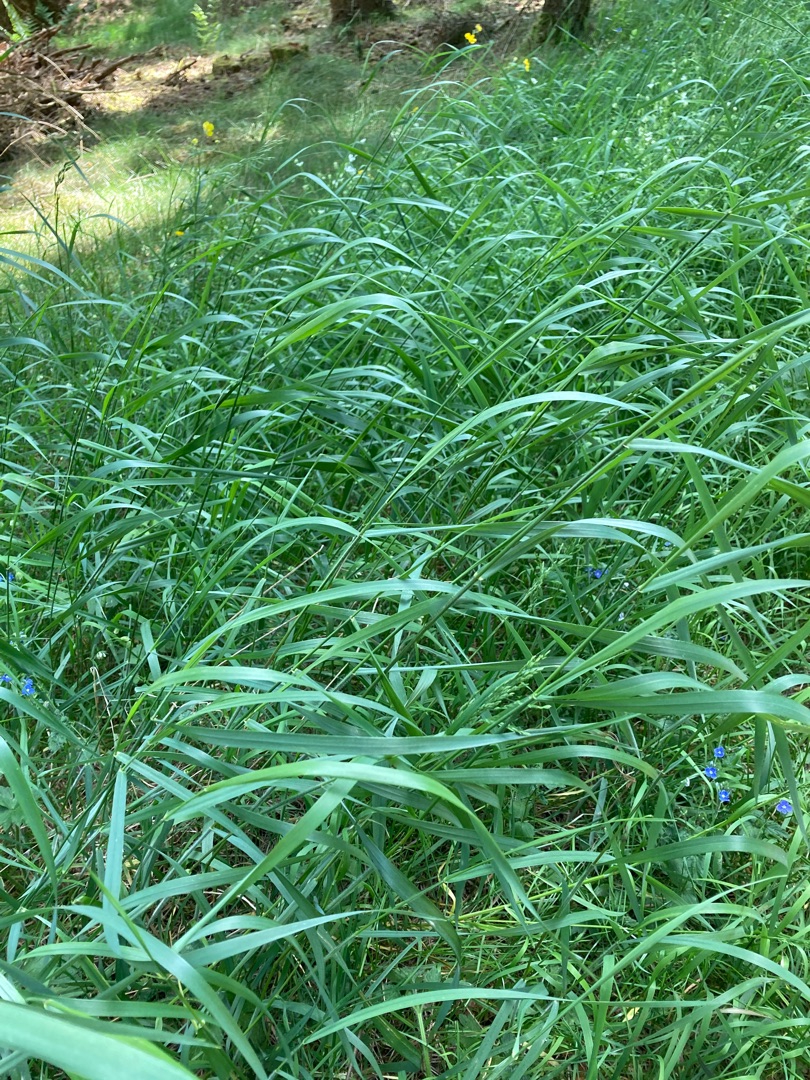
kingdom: Plantae
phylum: Tracheophyta
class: Liliopsida
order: Poales
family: Poaceae
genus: Elymus
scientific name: Elymus repens
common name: Almindelig kvik
